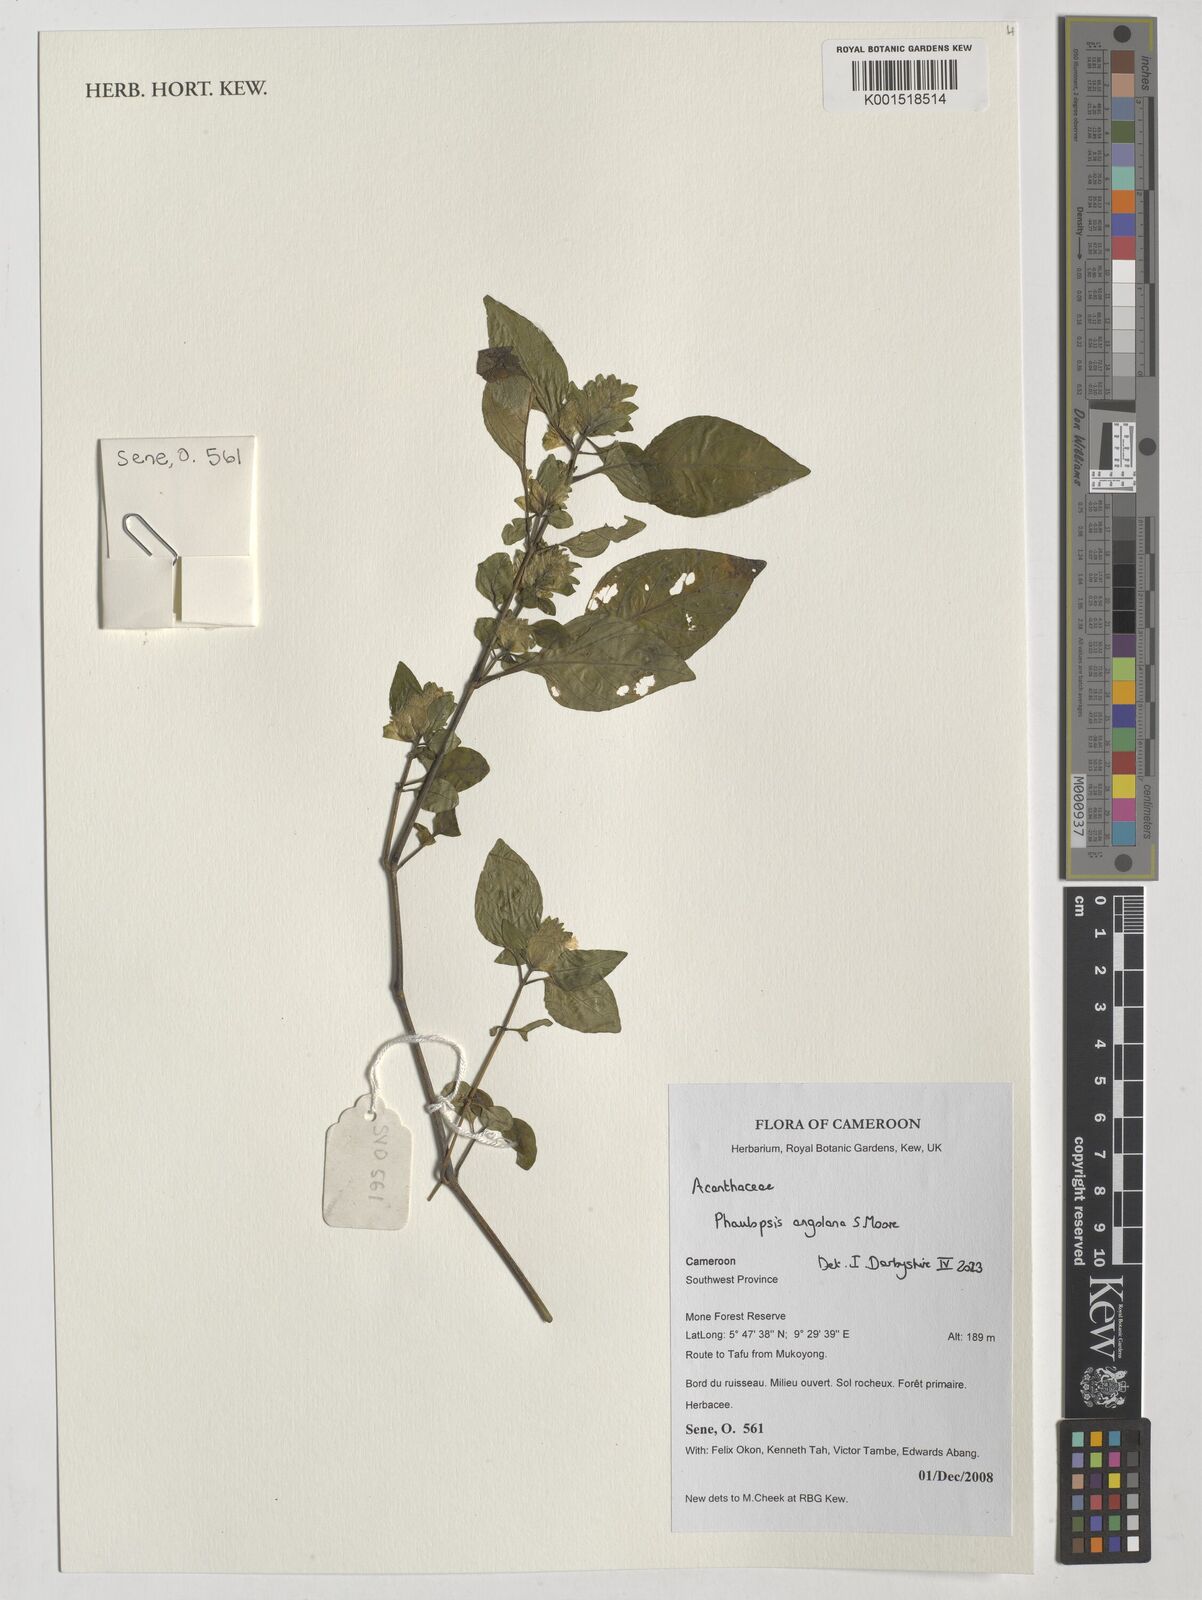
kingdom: Plantae
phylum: Tracheophyta
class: Magnoliopsida
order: Lamiales
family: Acanthaceae
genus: Phaulopsis
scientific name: Phaulopsis angolana
